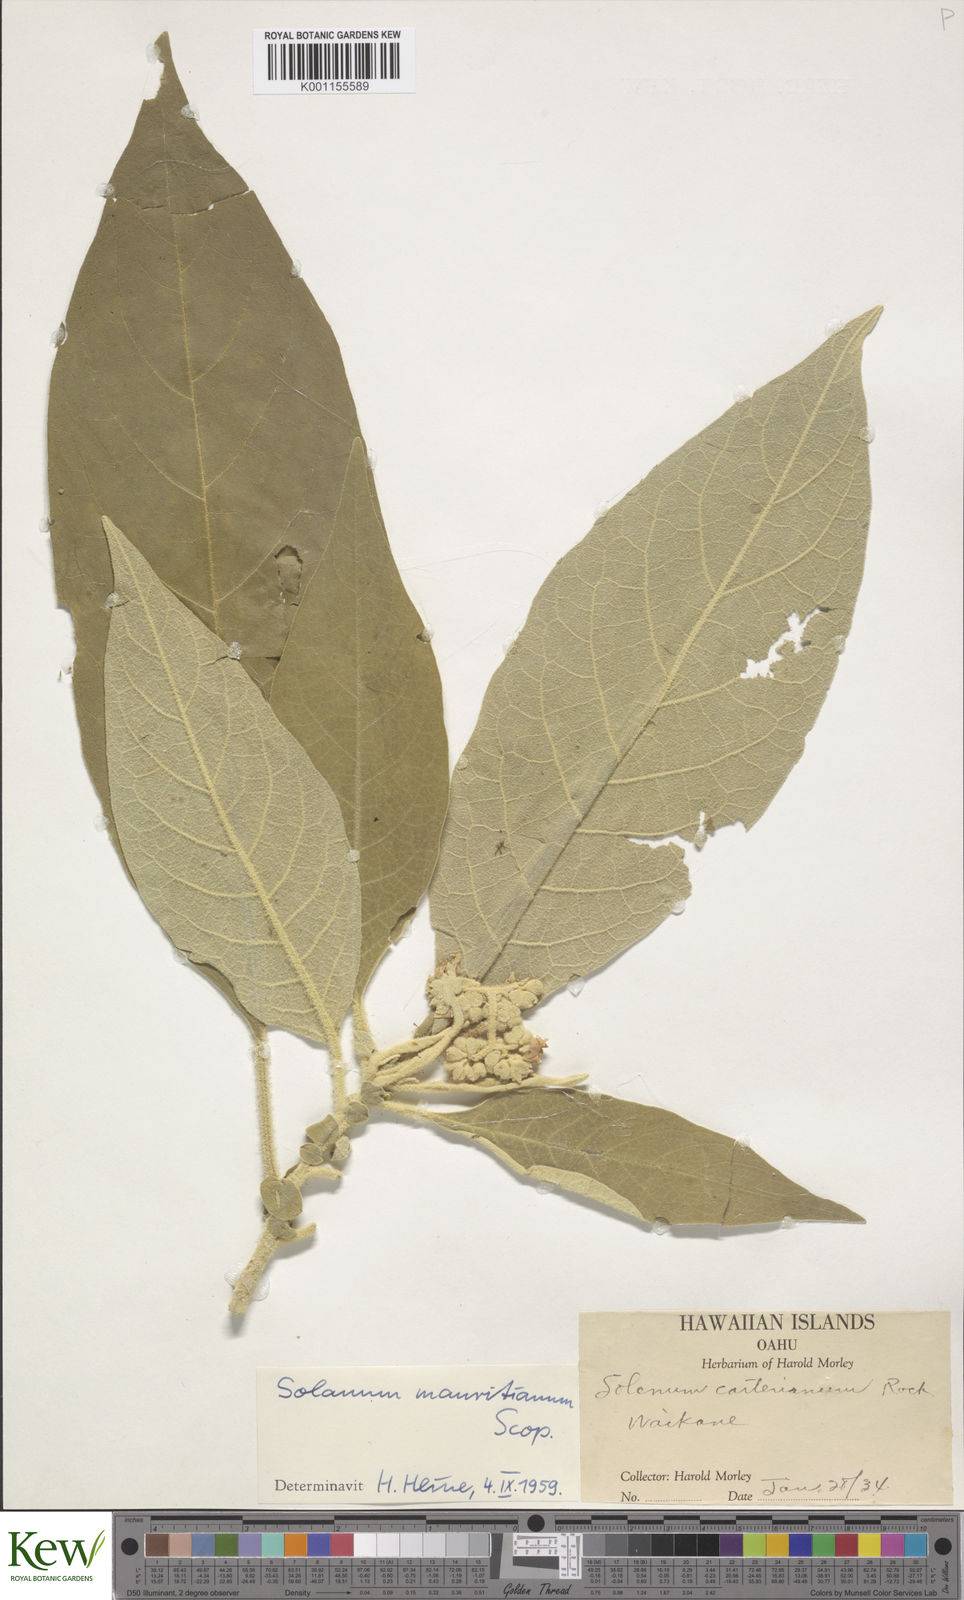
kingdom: Plantae
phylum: Tracheophyta
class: Magnoliopsida
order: Solanales
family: Solanaceae
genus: Solanum
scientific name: Solanum mauritianum
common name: Earleaf nightshade
